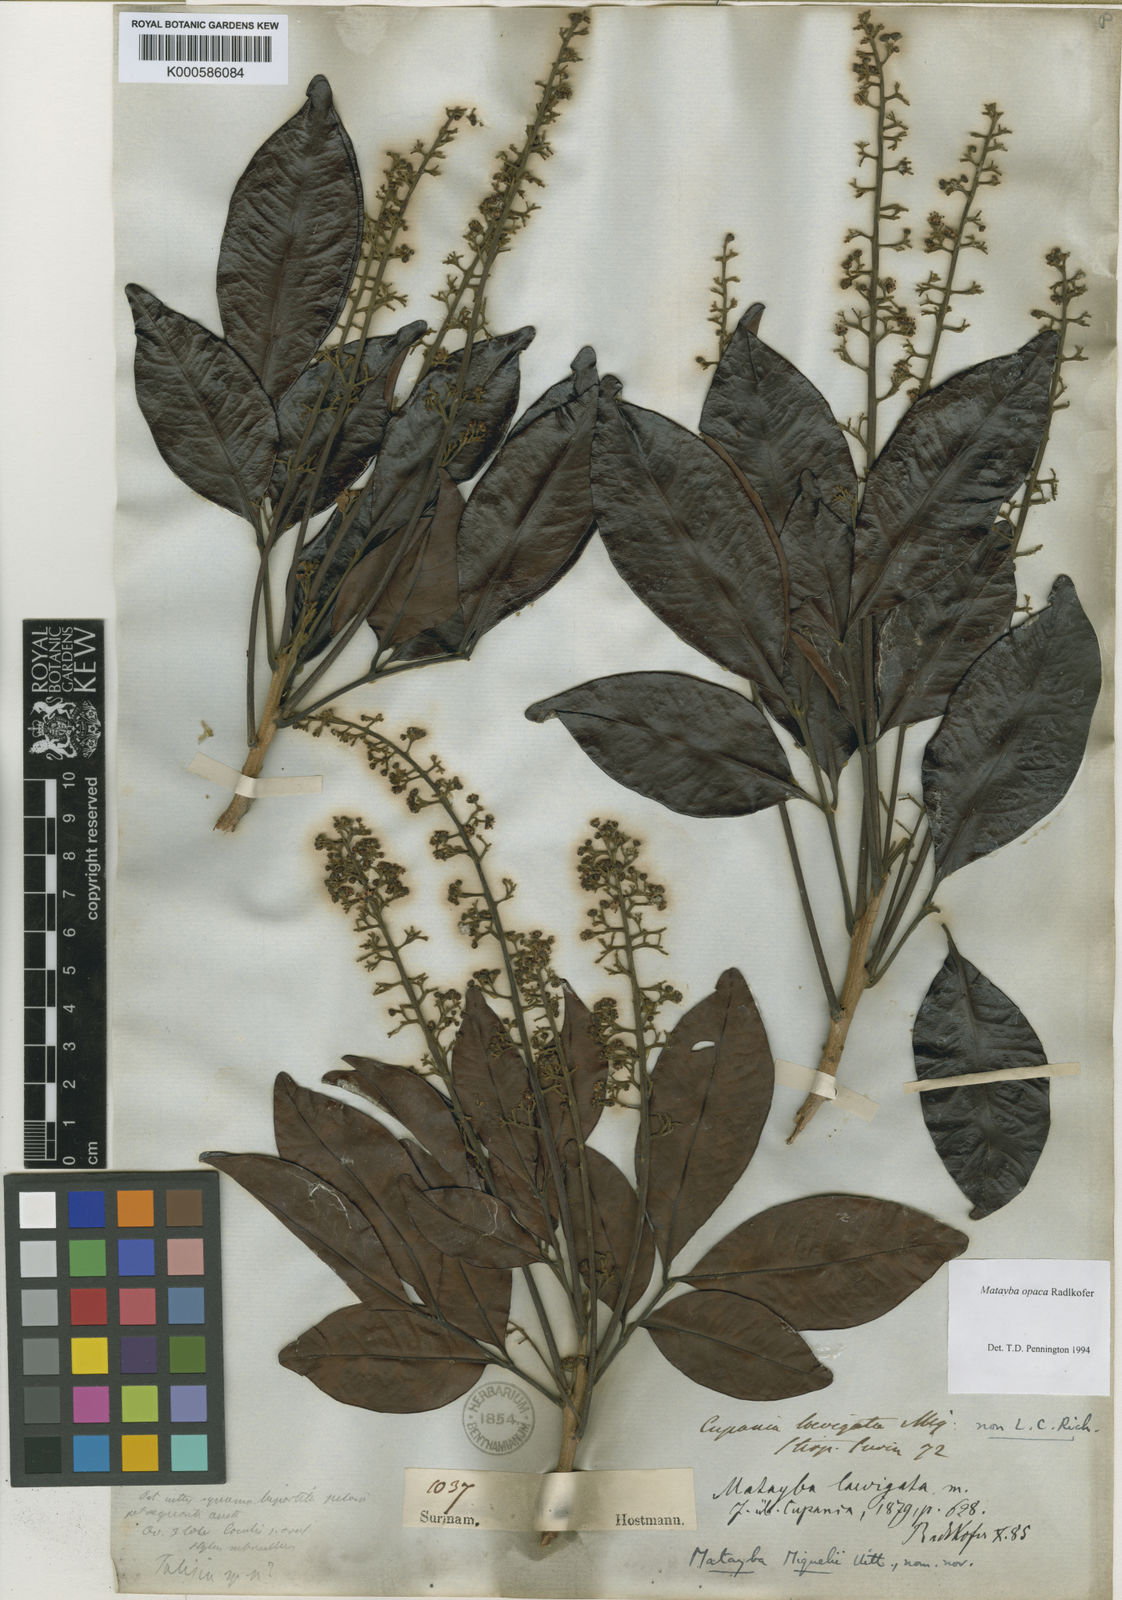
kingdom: Plantae
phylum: Tracheophyta
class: Magnoliopsida
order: Sapindales
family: Sapindaceae
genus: Matayba
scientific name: Matayba laevigata
